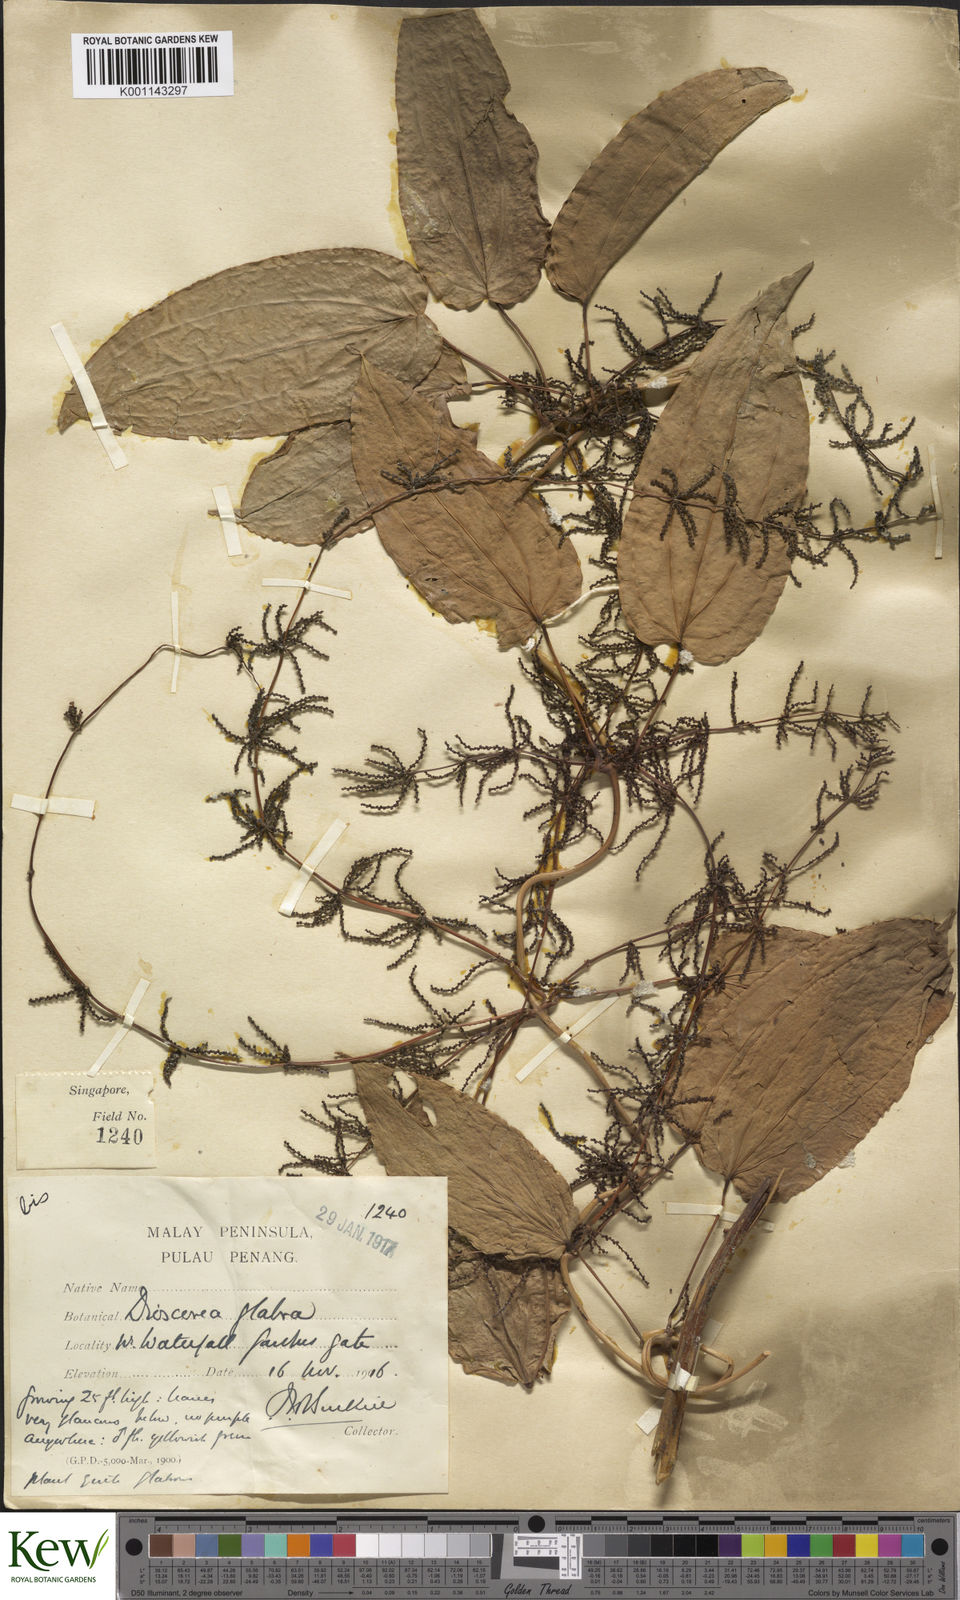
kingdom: Plantae
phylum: Tracheophyta
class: Liliopsida
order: Dioscoreales
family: Dioscoreaceae
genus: Dioscorea
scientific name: Dioscorea glabra
